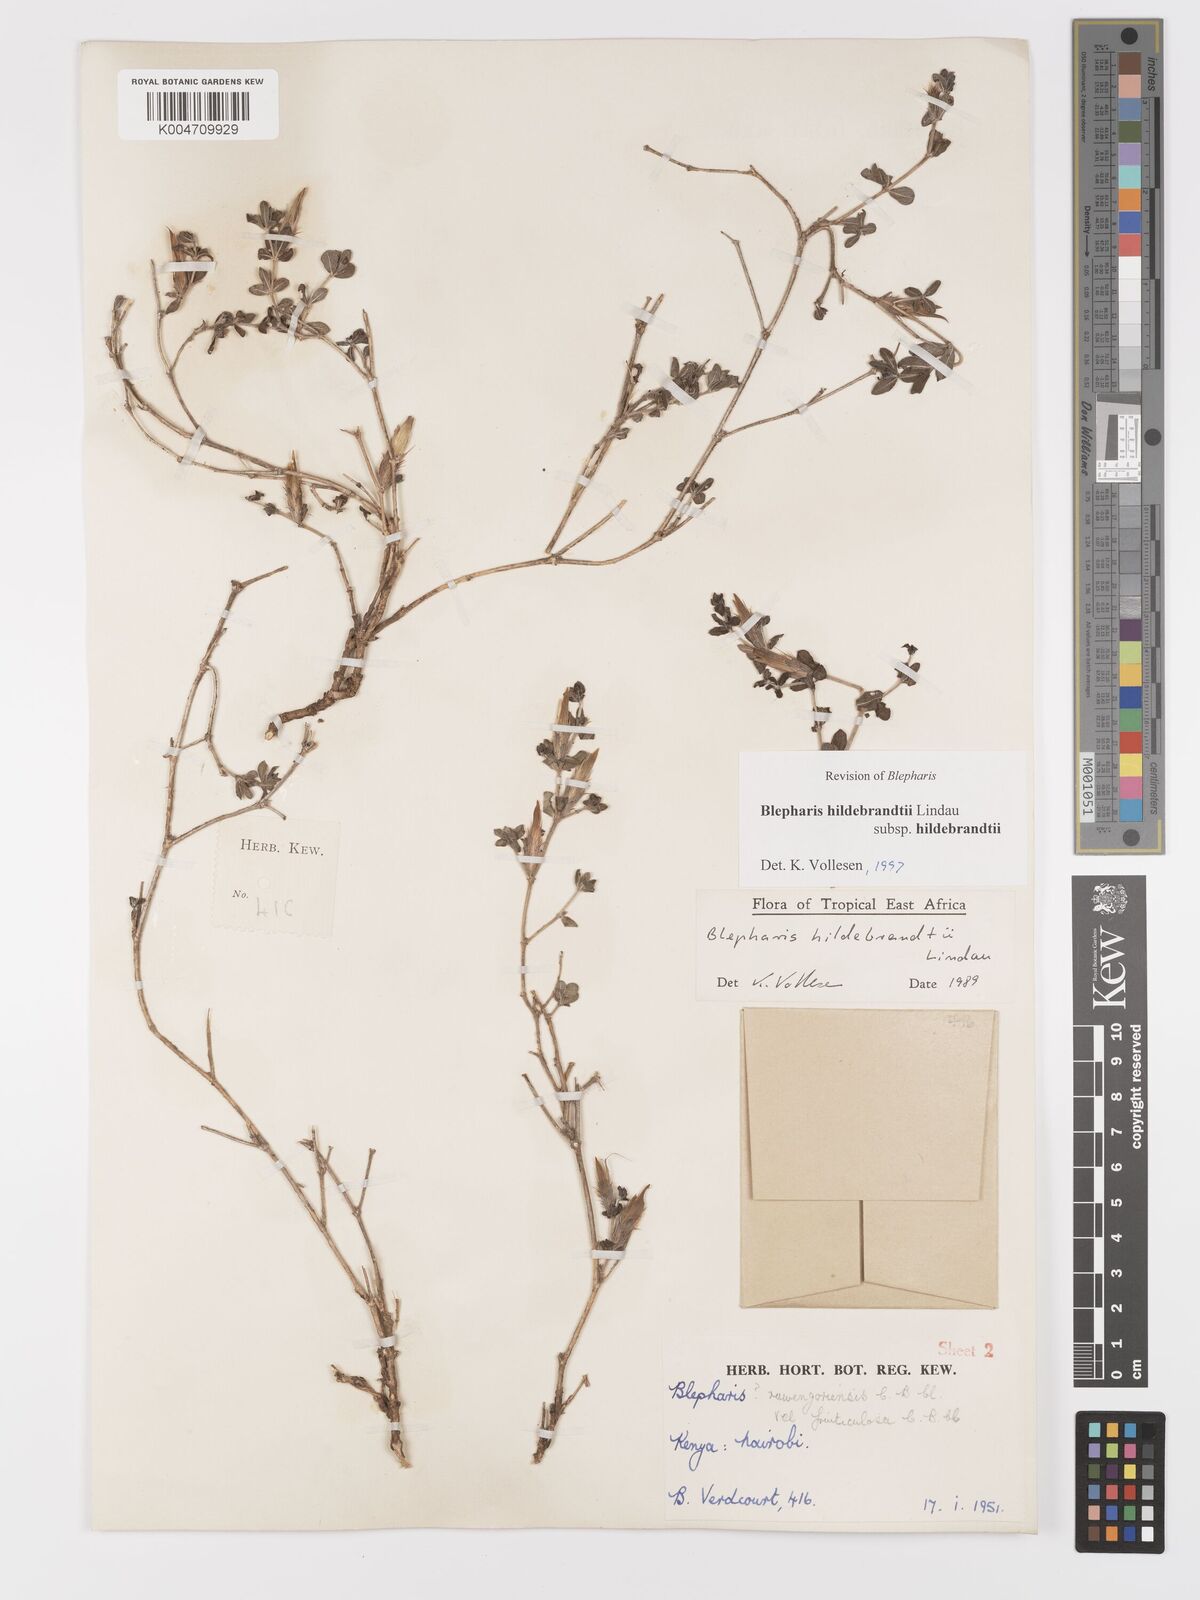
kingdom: Plantae
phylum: Tracheophyta
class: Magnoliopsida
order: Lamiales
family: Acanthaceae
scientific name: Acanthaceae
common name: Acanthaceae
